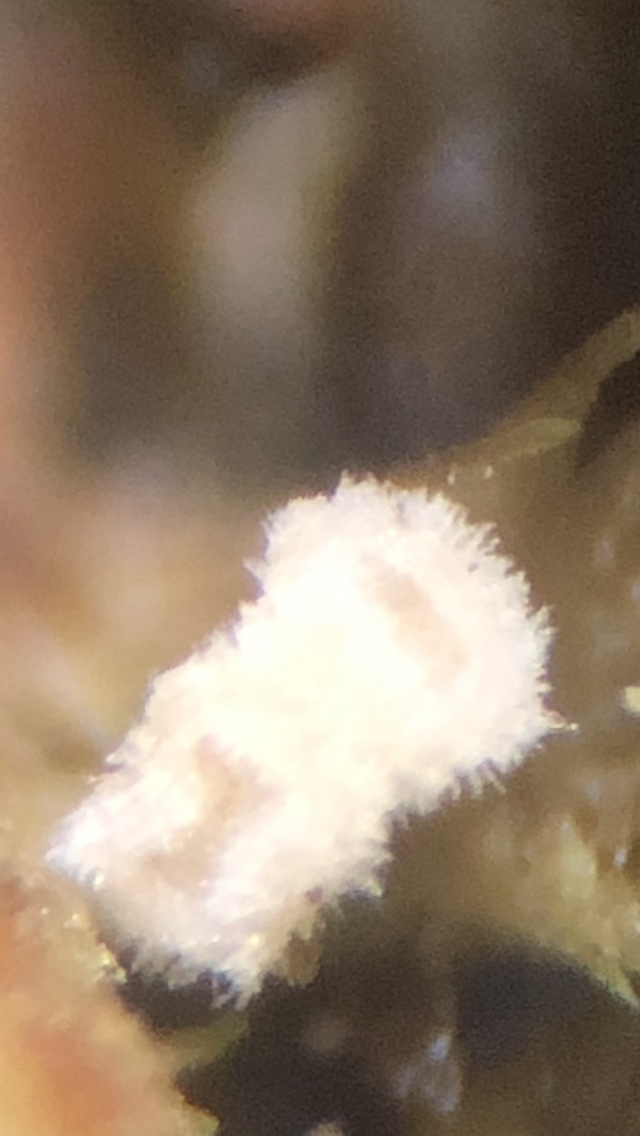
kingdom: Fungi
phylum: Basidiomycota
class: Agaricomycetes
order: Agaricales
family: Chromocyphellaceae
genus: Chromocyphella
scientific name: Chromocyphella muscicola
